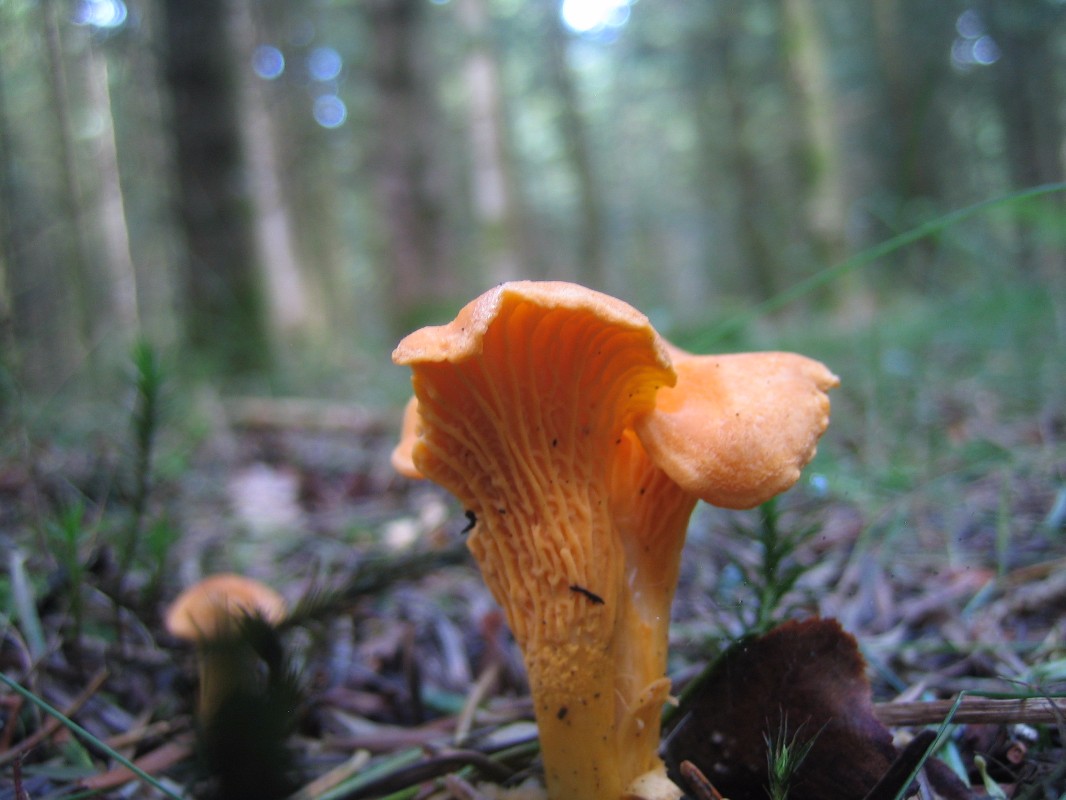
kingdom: Fungi
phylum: Basidiomycota
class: Agaricomycetes
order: Cantharellales
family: Hydnaceae
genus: Cantharellus
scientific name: Cantharellus cibarius
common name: almindelig kantarel
